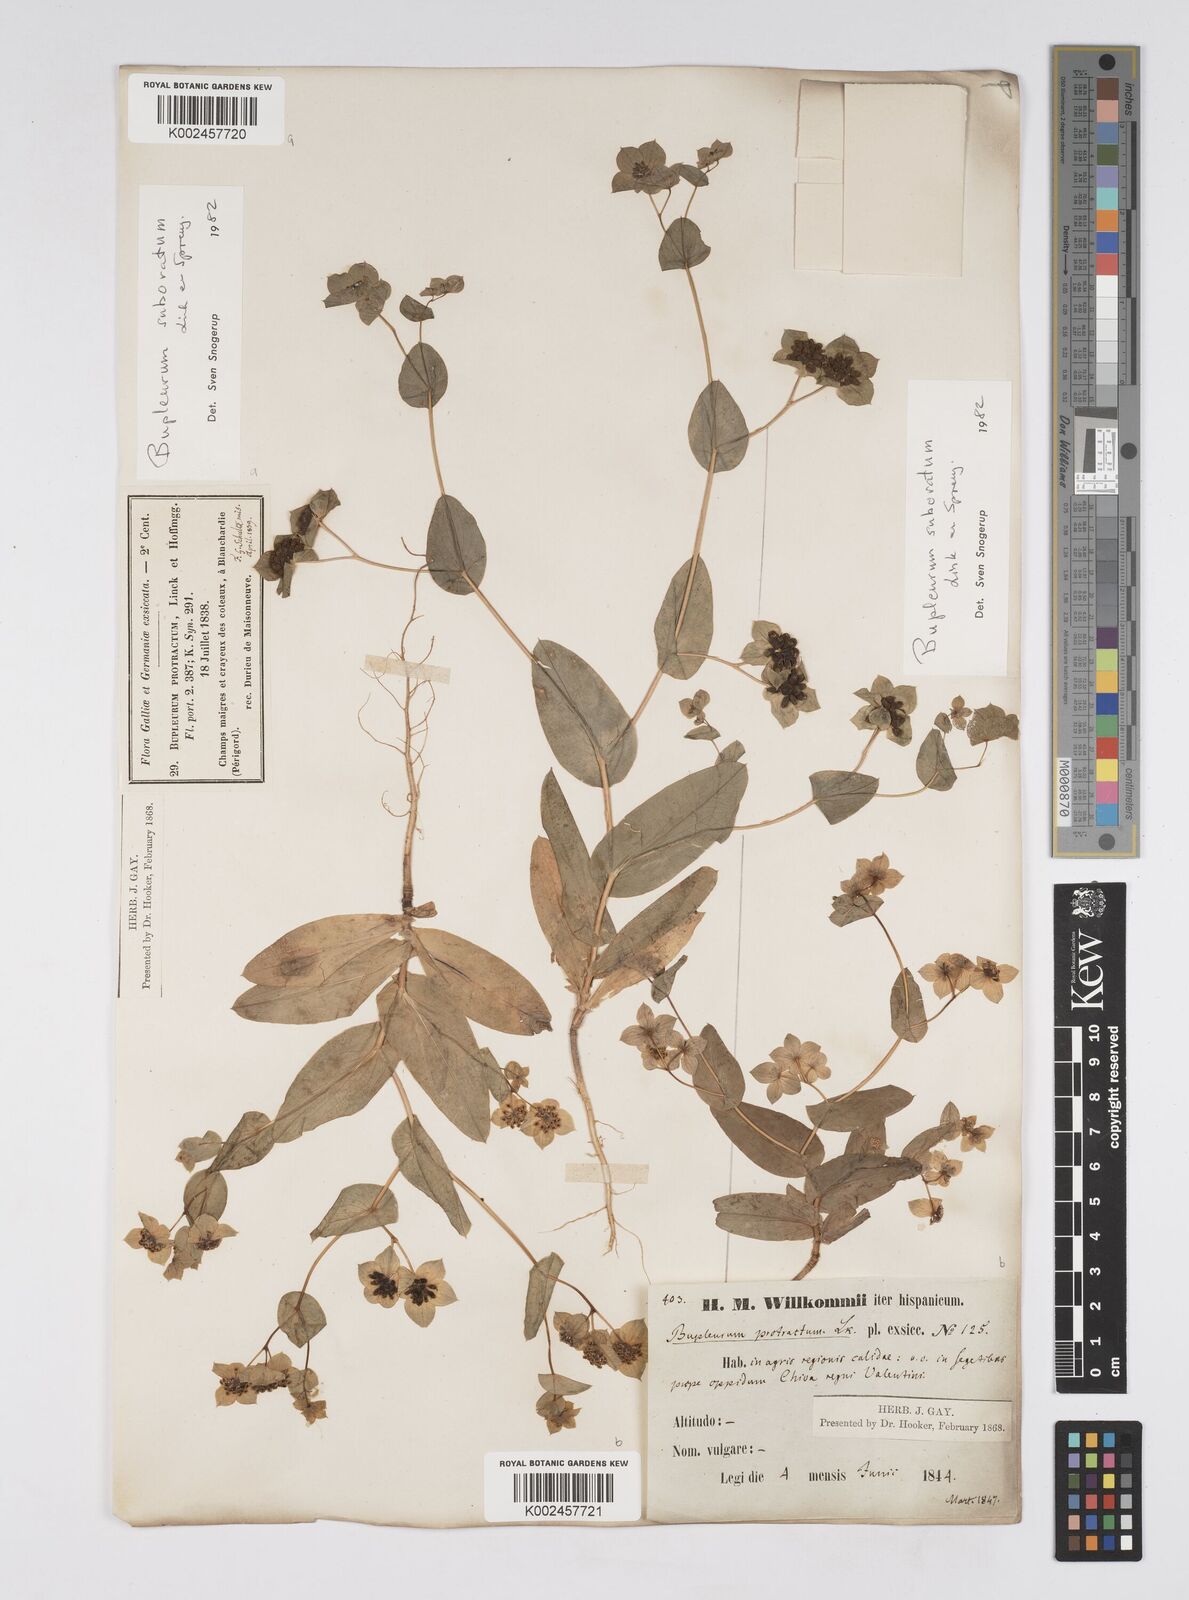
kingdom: Plantae
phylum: Tracheophyta
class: Magnoliopsida
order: Apiales
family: Apiaceae
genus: Bupleurum
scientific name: Bupleurum lancifolium
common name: False thorow-wax
